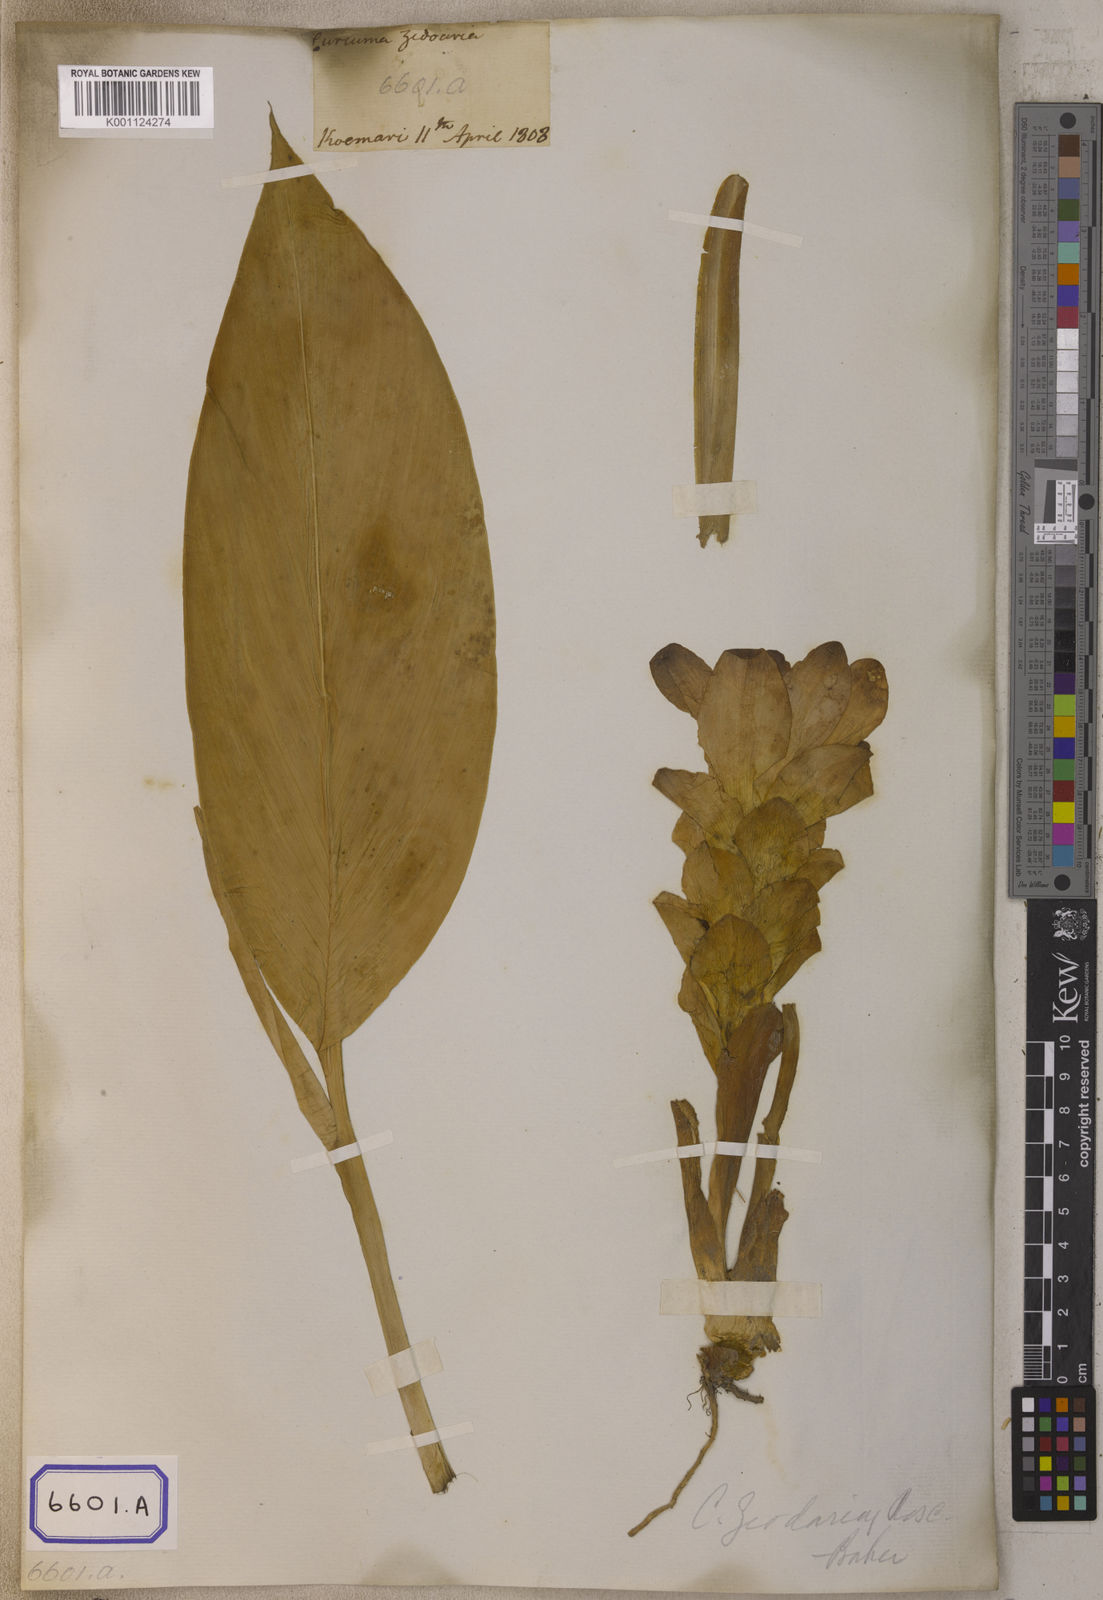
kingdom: Plantae
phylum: Tracheophyta
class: Liliopsida
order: Zingiberales
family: Zingiberaceae
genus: Curcuma
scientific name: Curcuma zedoaria
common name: Zedoary
